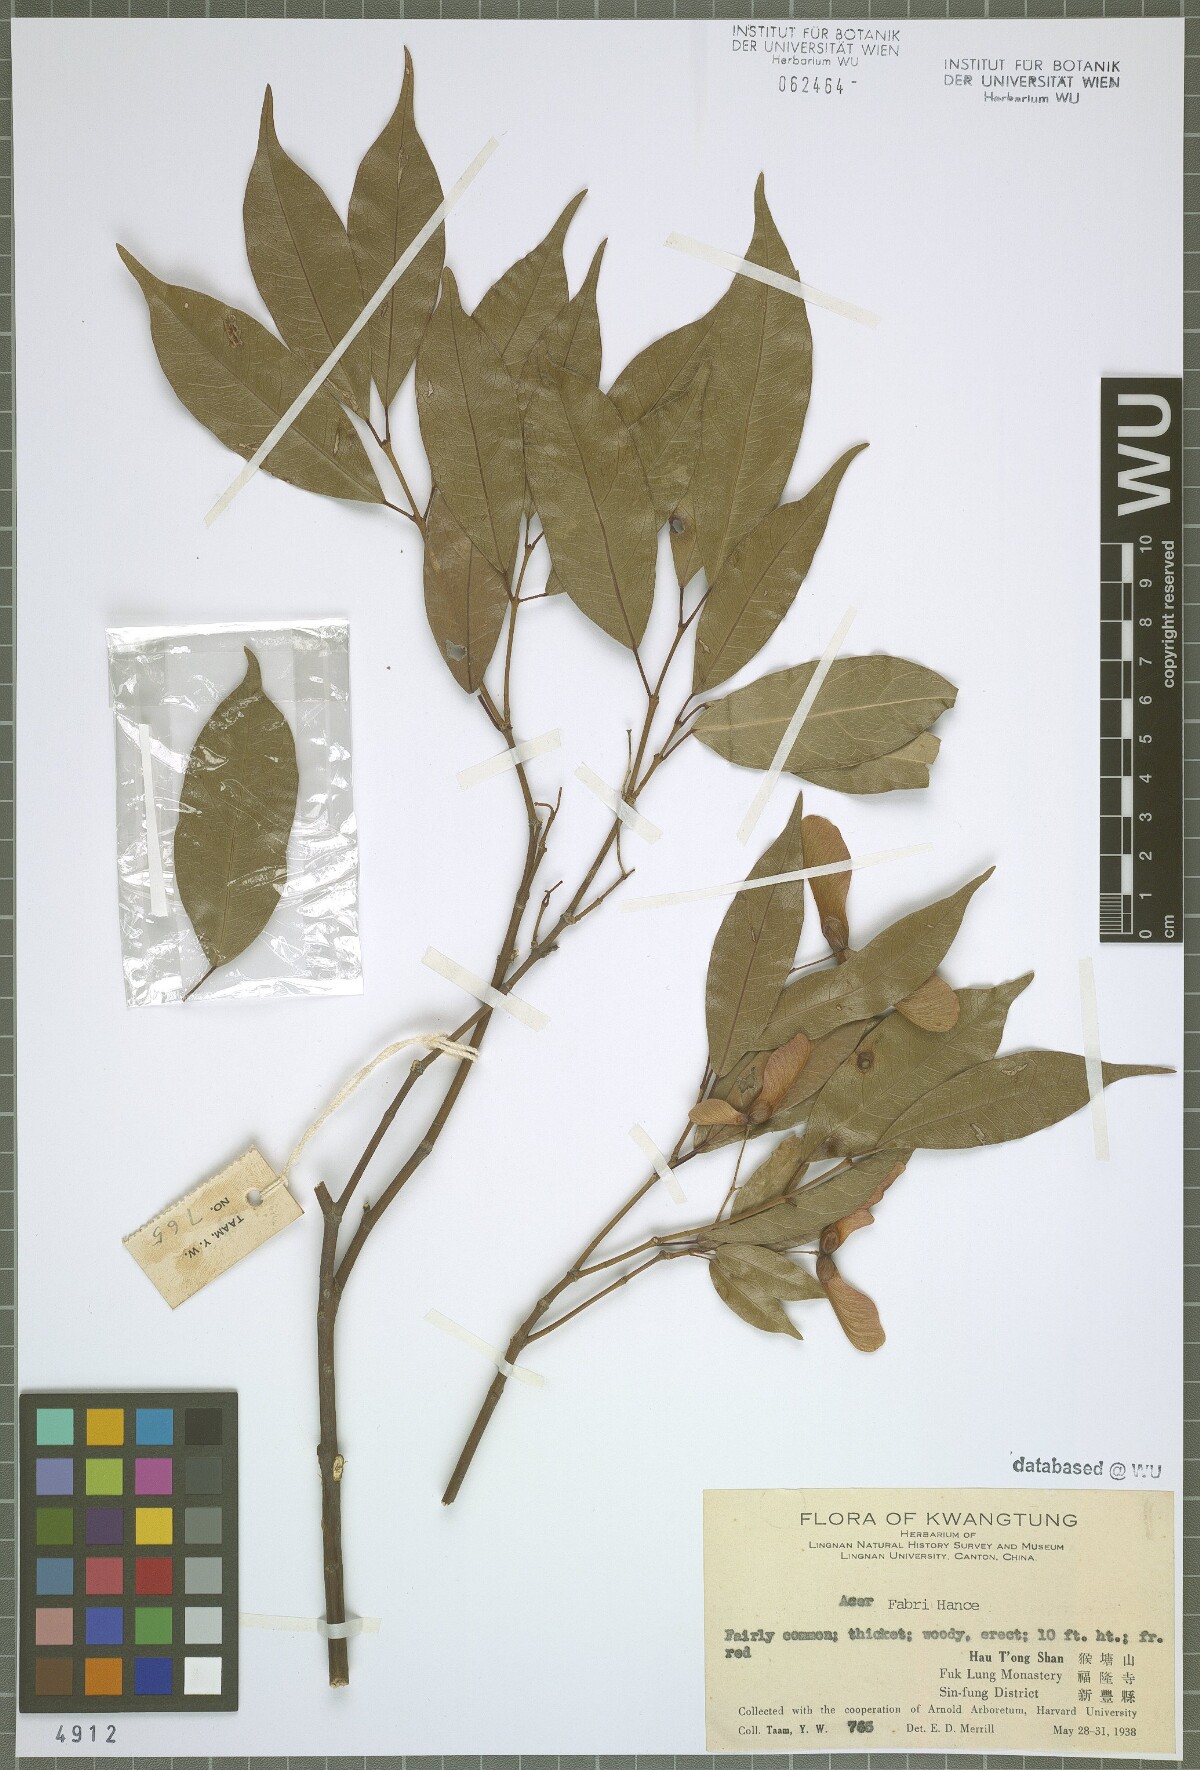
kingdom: Plantae
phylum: Tracheophyta
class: Magnoliopsida
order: Sapindales
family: Sapindaceae
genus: Acer
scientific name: Acer fabri
